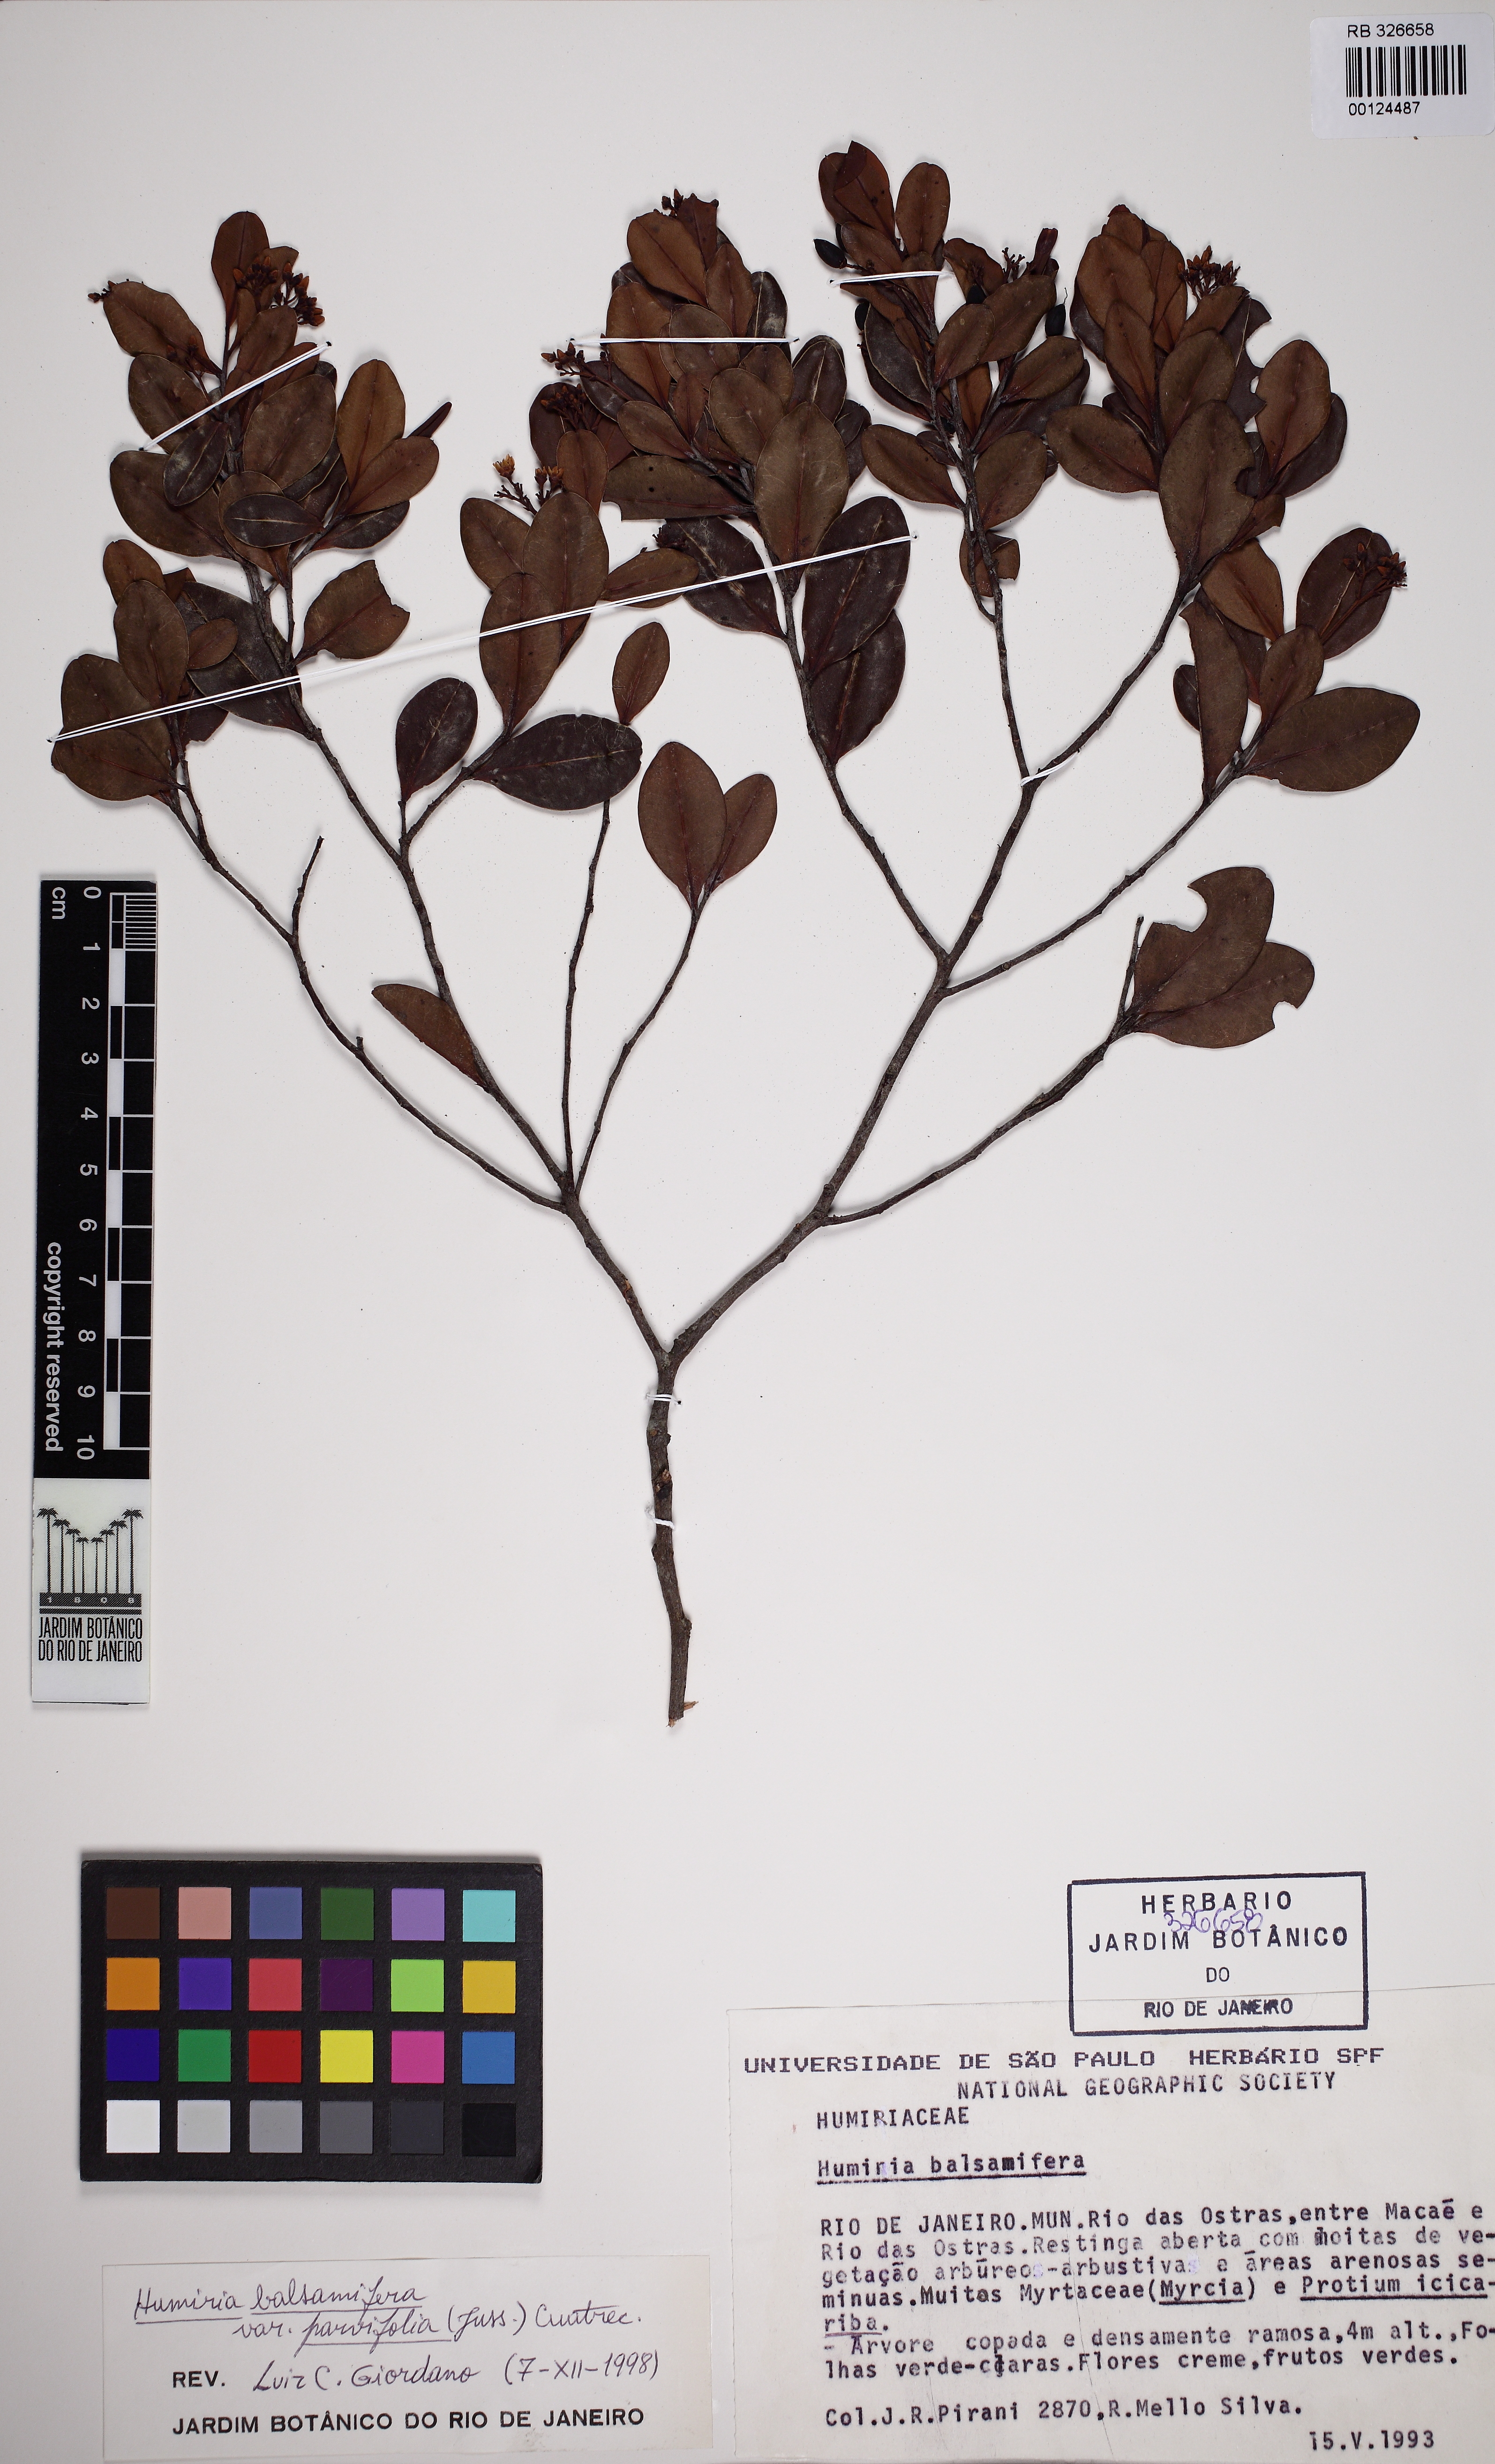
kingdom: Plantae
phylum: Tracheophyta
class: Magnoliopsida
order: Malpighiales
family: Humiriaceae
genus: Humiria
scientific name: Humiria parvifolia
